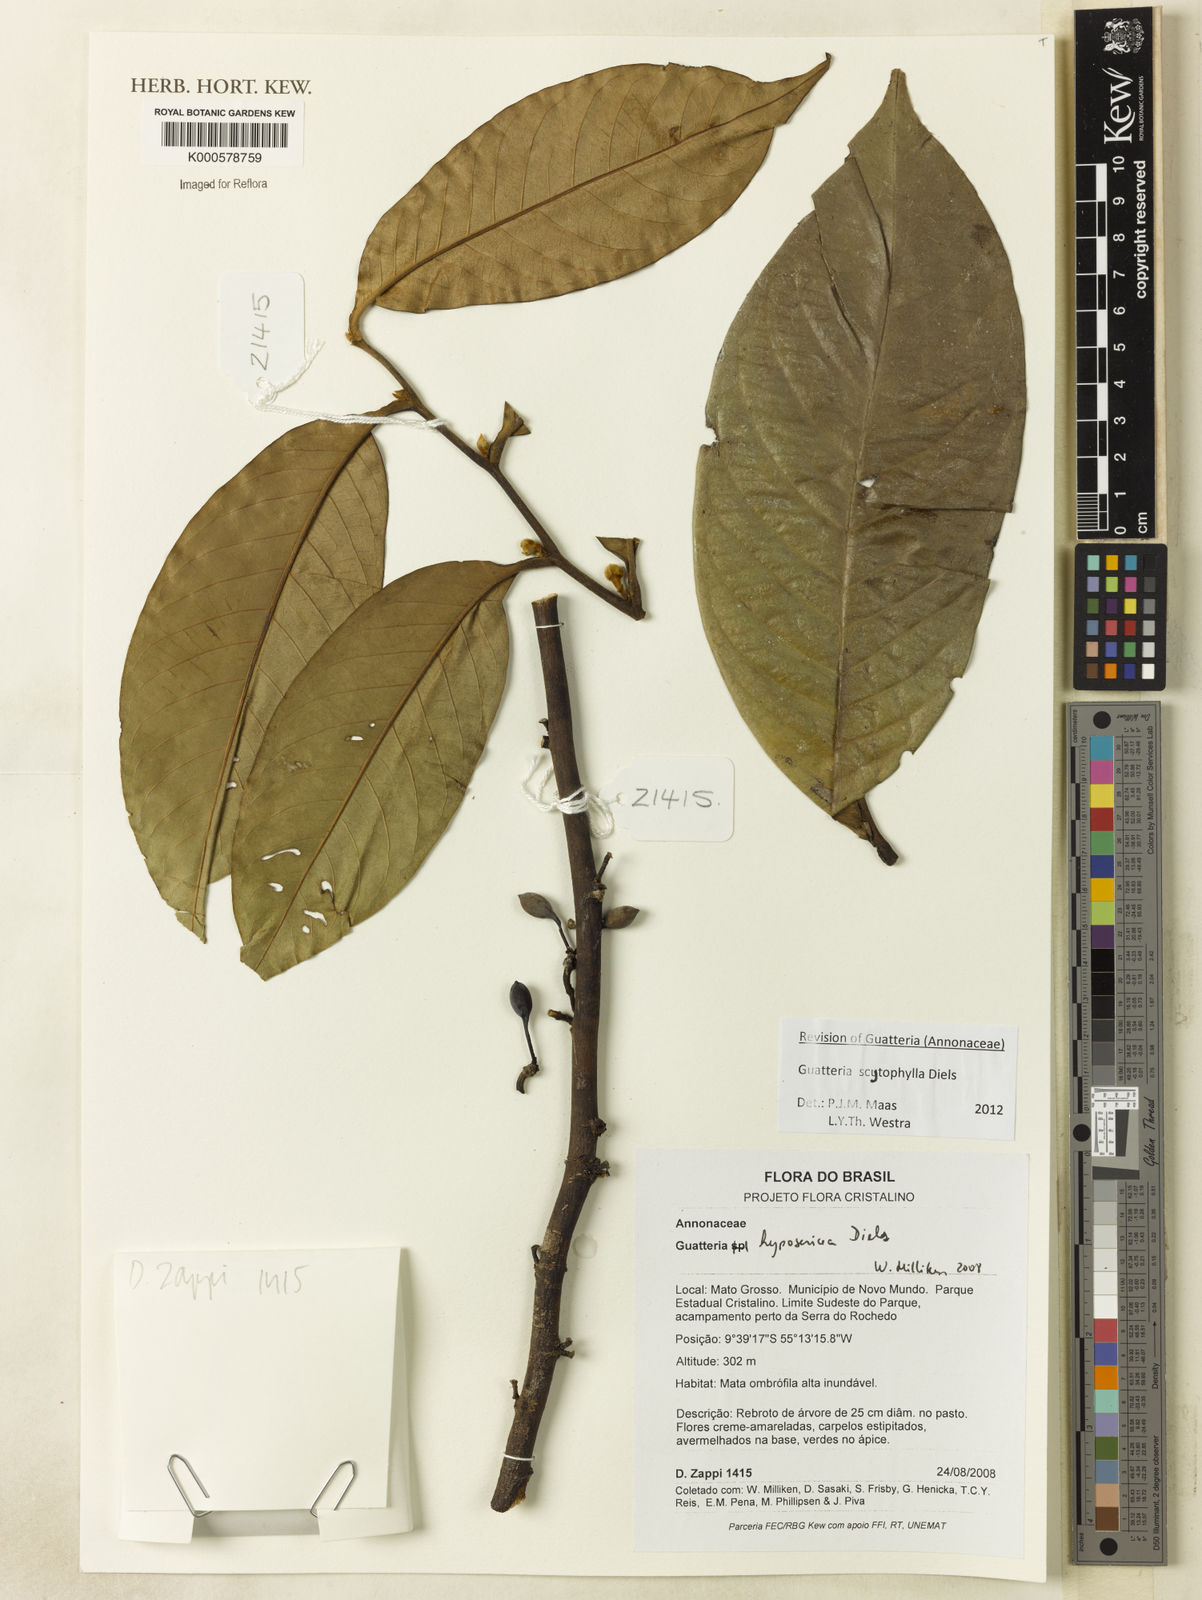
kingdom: Plantae
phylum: Tracheophyta
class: Magnoliopsida
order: Magnoliales
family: Annonaceae
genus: Guatteria
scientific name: Guatteria hyposericea
